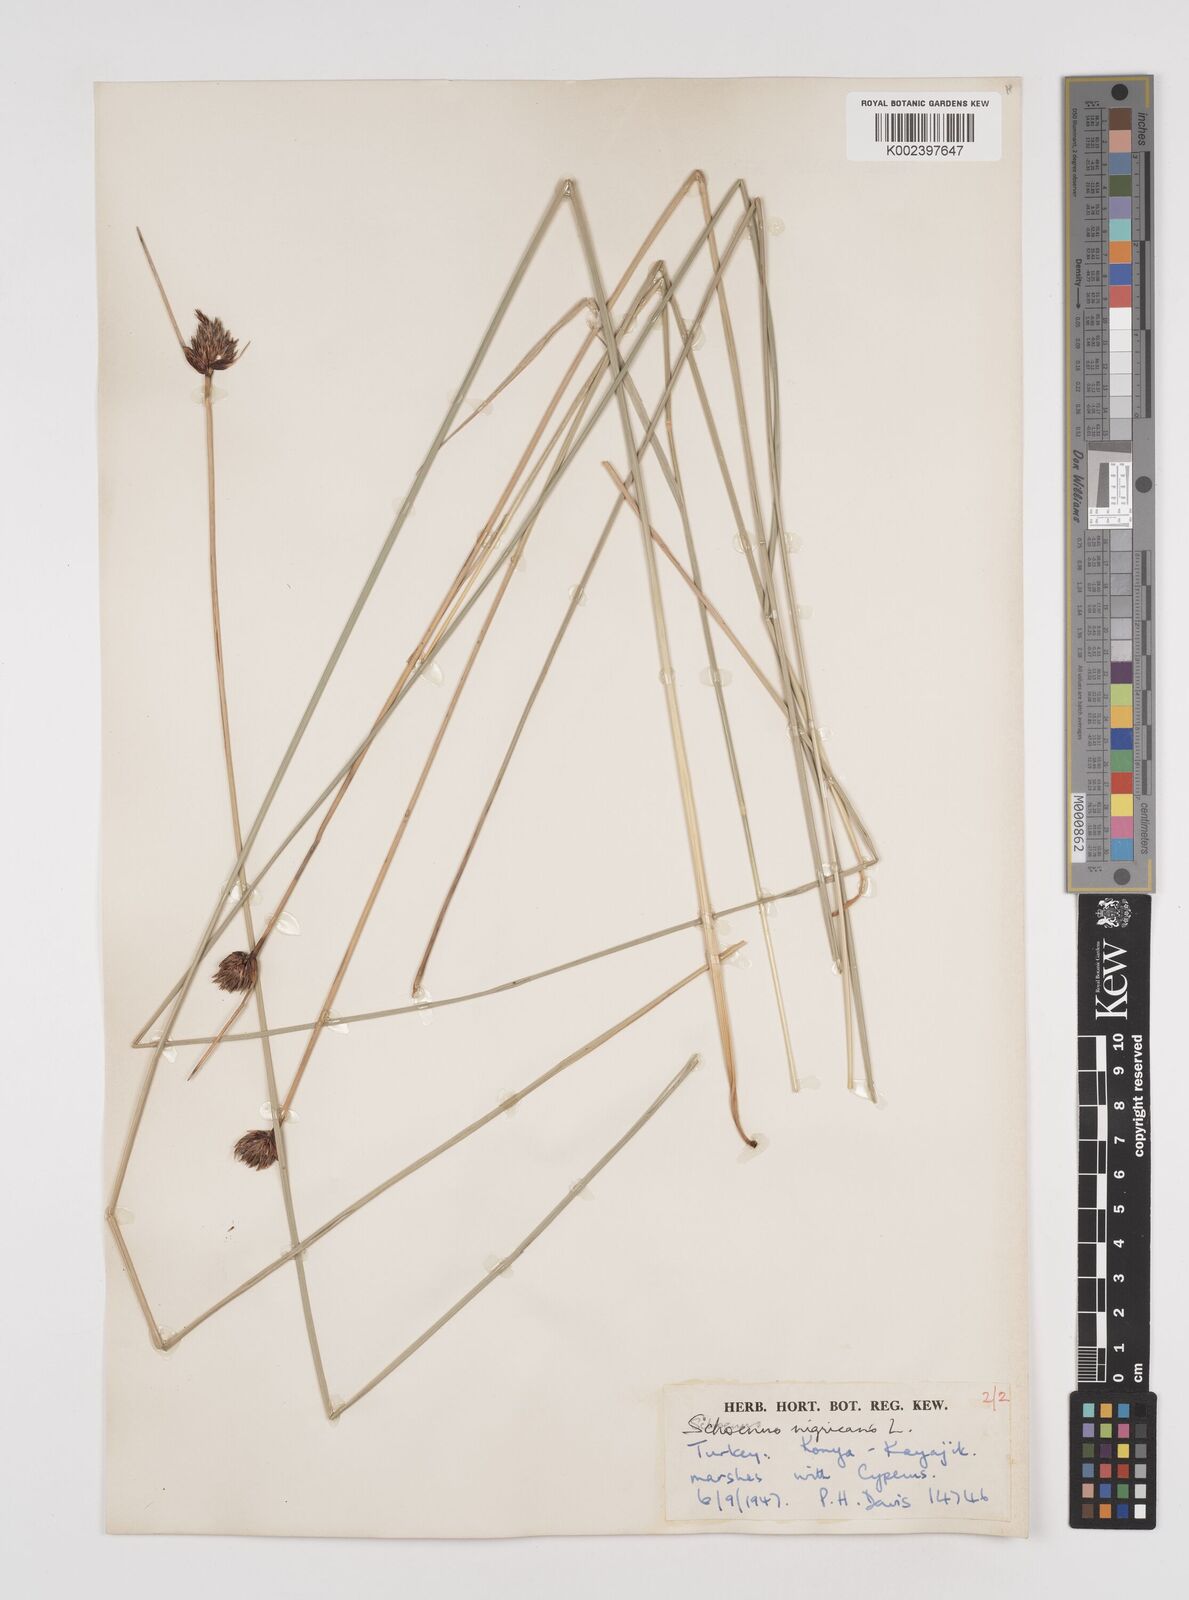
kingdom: Plantae
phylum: Tracheophyta
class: Liliopsida
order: Poales
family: Cyperaceae
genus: Schoenus
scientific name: Schoenus nigricans
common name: Black bog-rush
